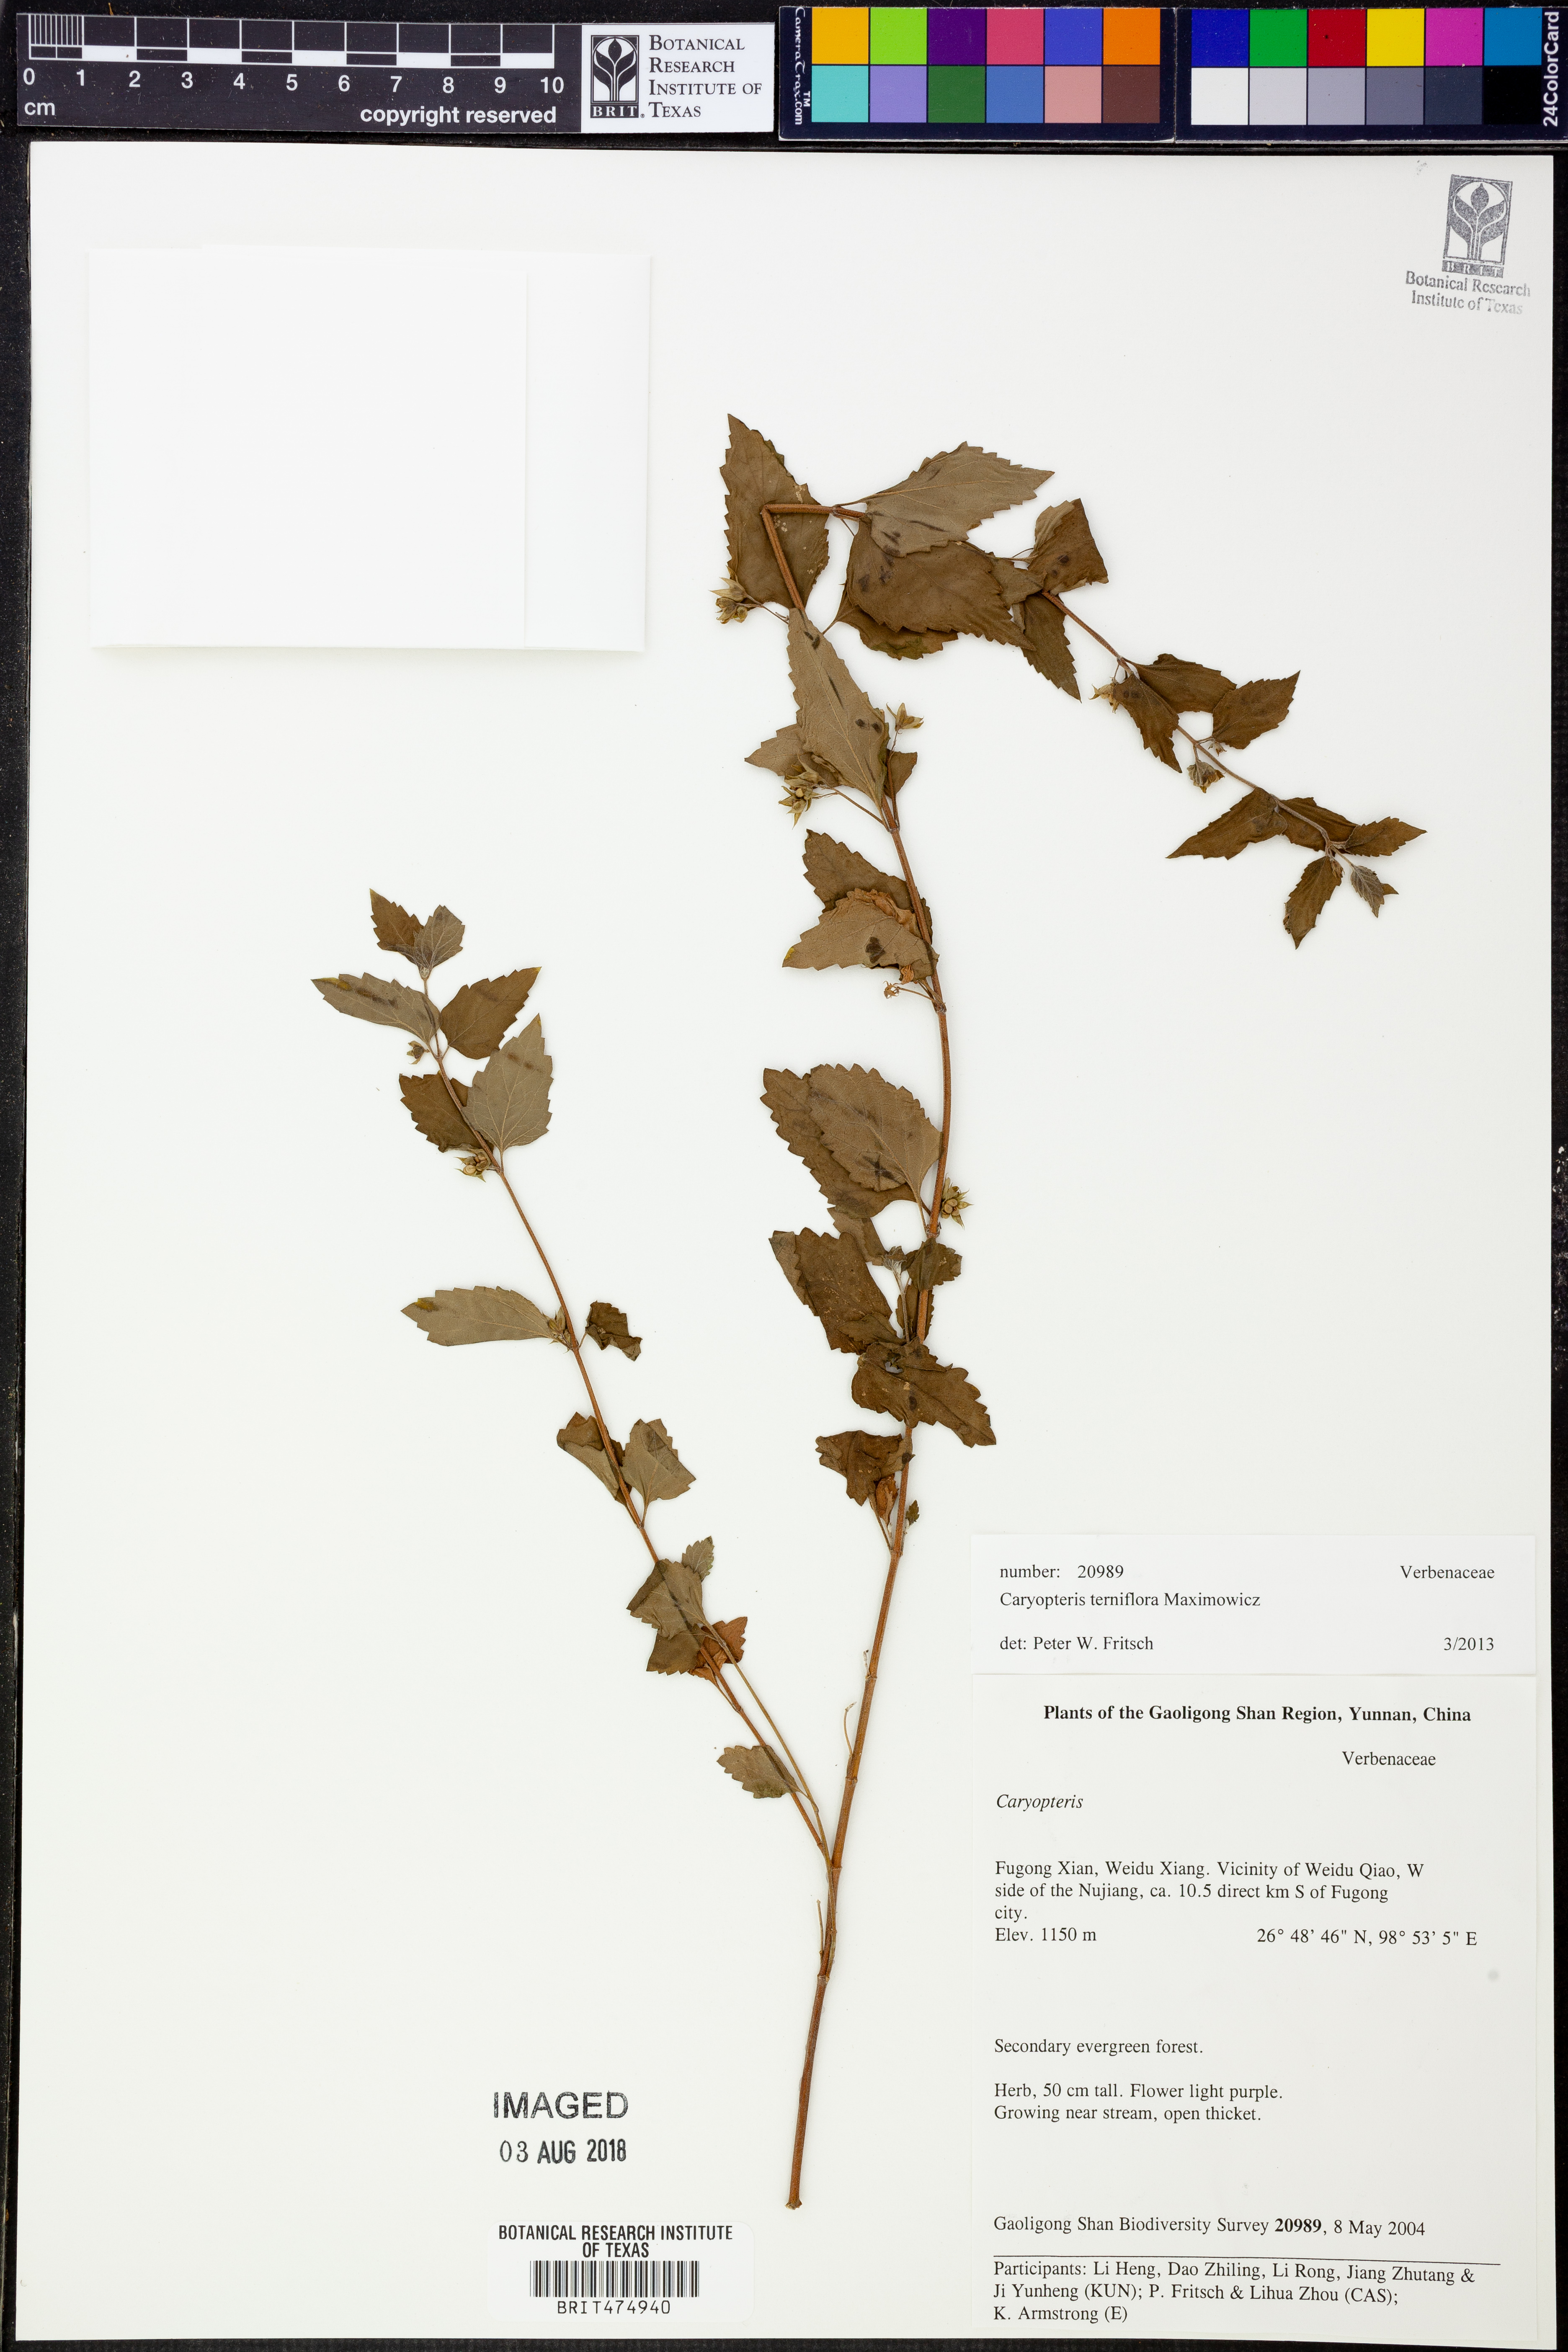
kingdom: Plantae
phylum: Tracheophyta
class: Magnoliopsida
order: Lamiales
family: Lamiaceae
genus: Schnabelia
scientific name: Schnabelia terniflora
